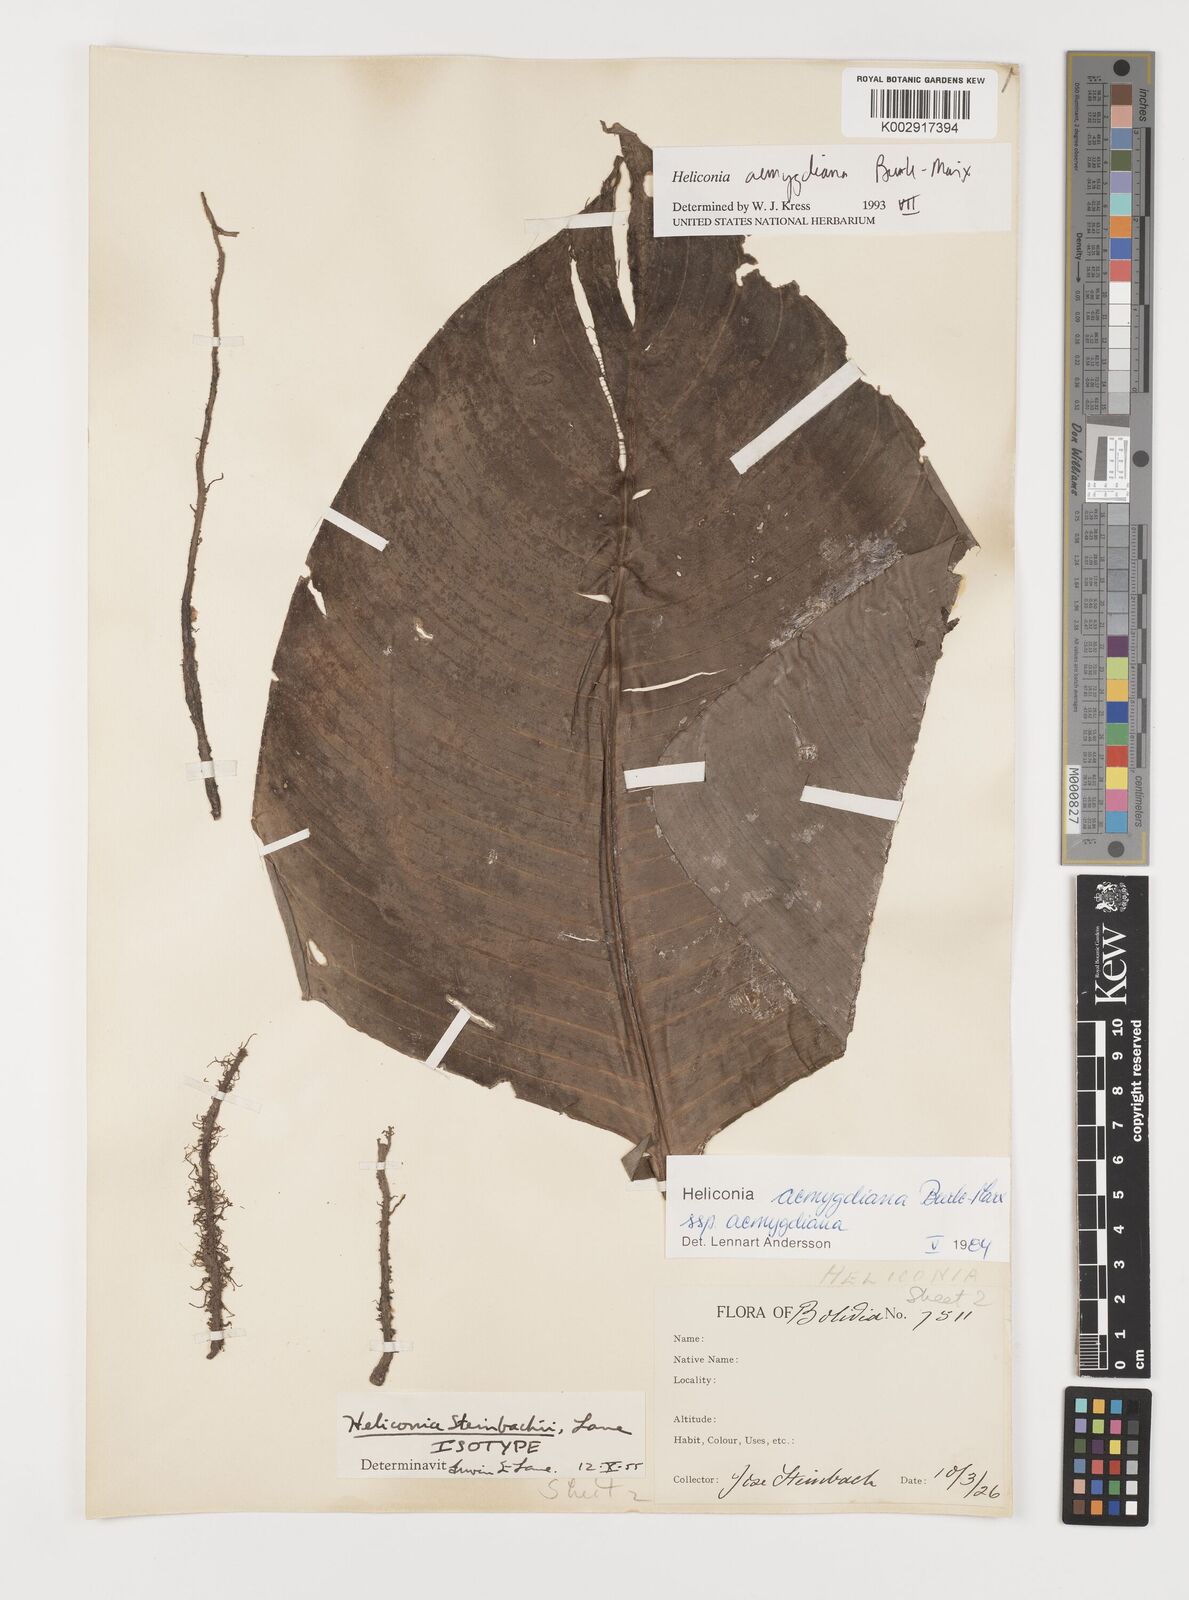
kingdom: Plantae
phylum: Tracheophyta
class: Liliopsida
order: Zingiberales
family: Heliconiaceae
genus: Heliconia
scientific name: Heliconia aemygdiana
